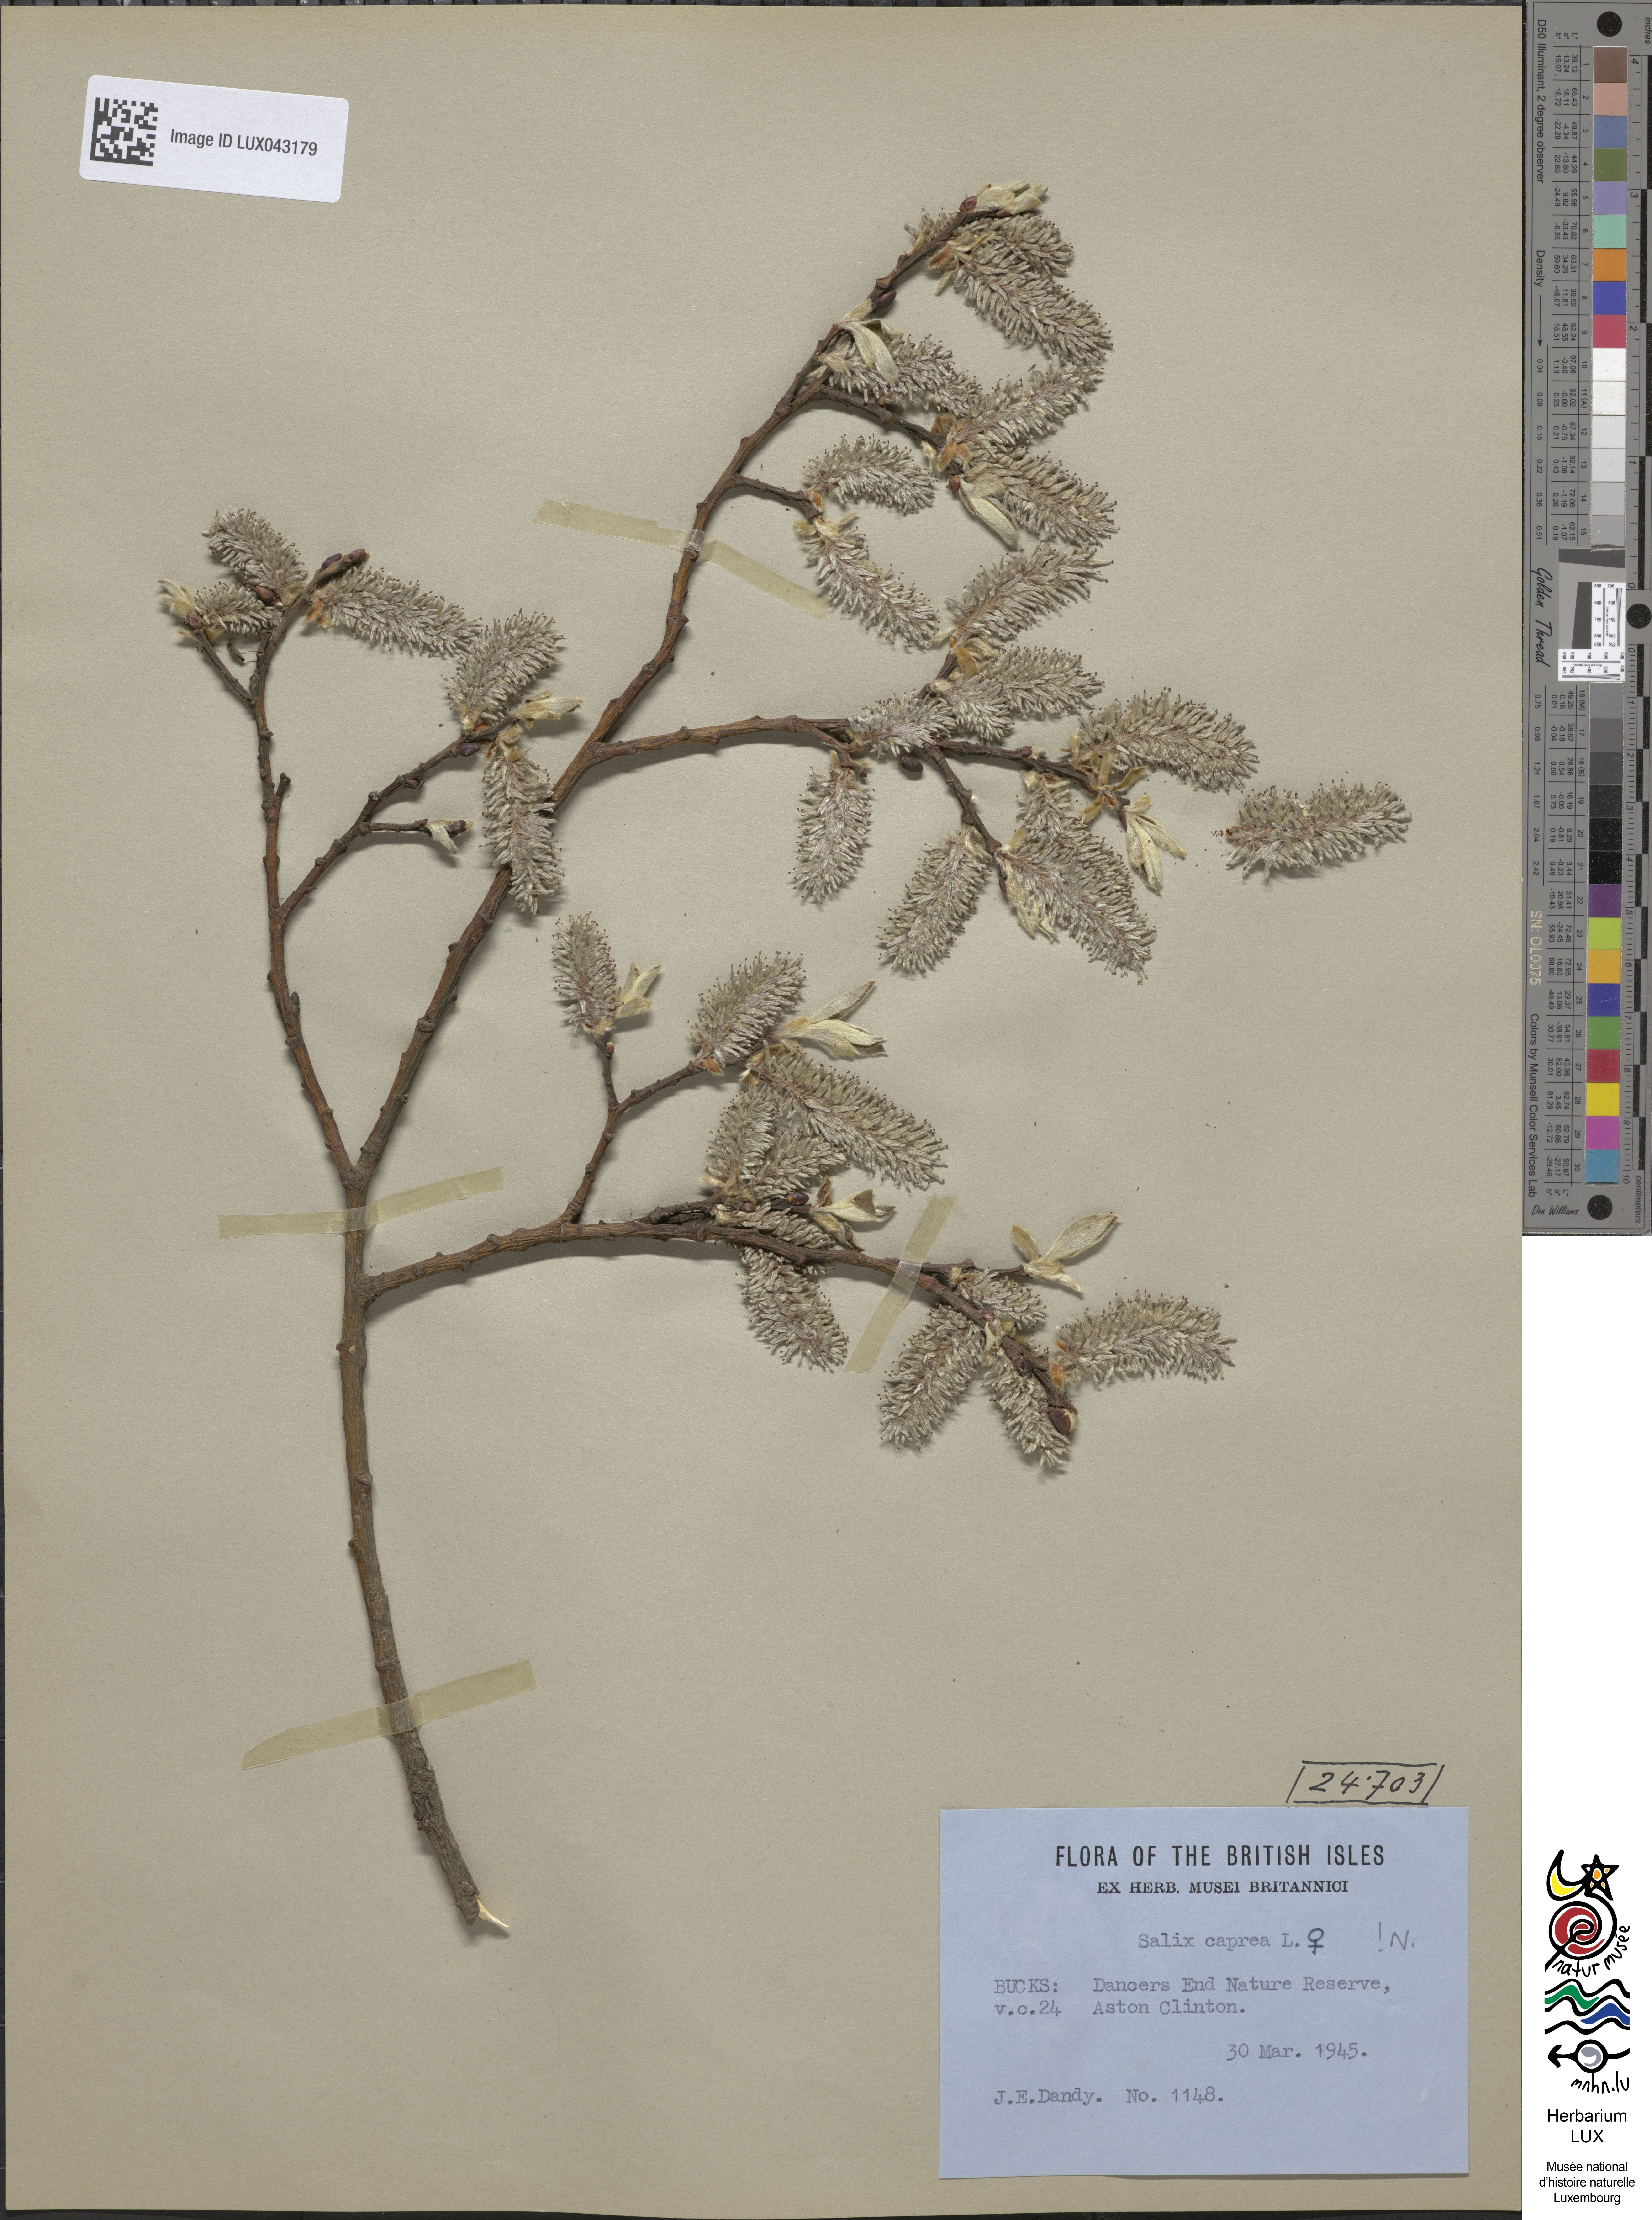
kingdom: Plantae
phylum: Tracheophyta
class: Magnoliopsida
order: Malpighiales
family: Salicaceae
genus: Salix
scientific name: Salix caprea
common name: Goat willow
